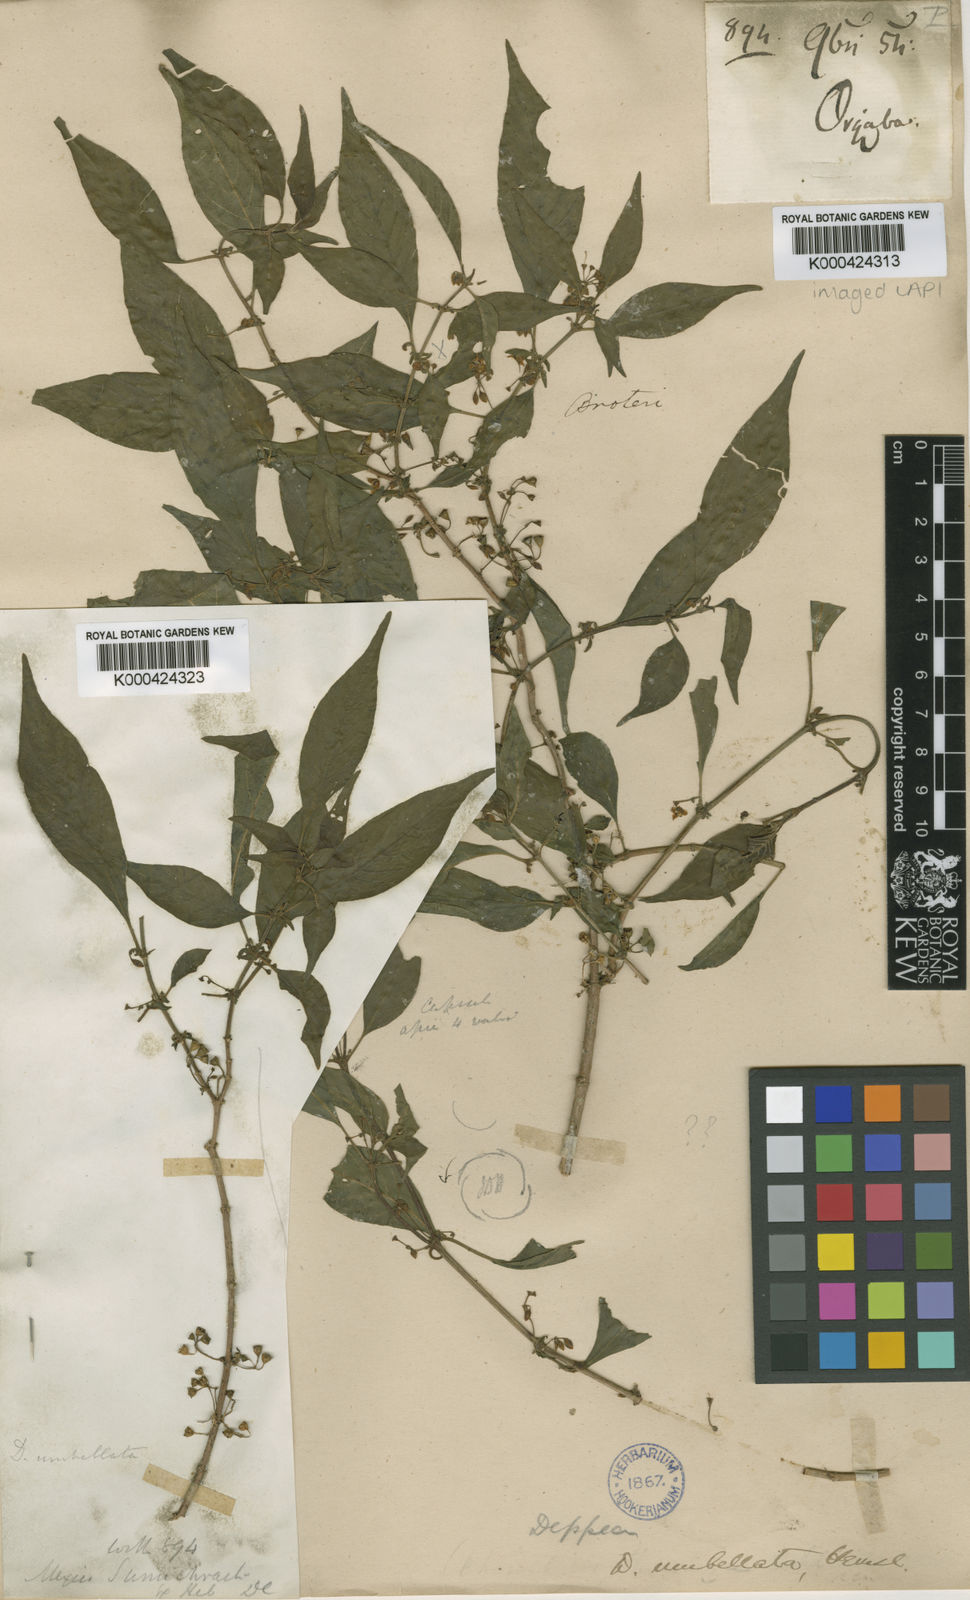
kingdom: Plantae
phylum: Tracheophyta
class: Magnoliopsida
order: Gentianales
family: Rubiaceae
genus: Deppea
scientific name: Deppea umbellata
